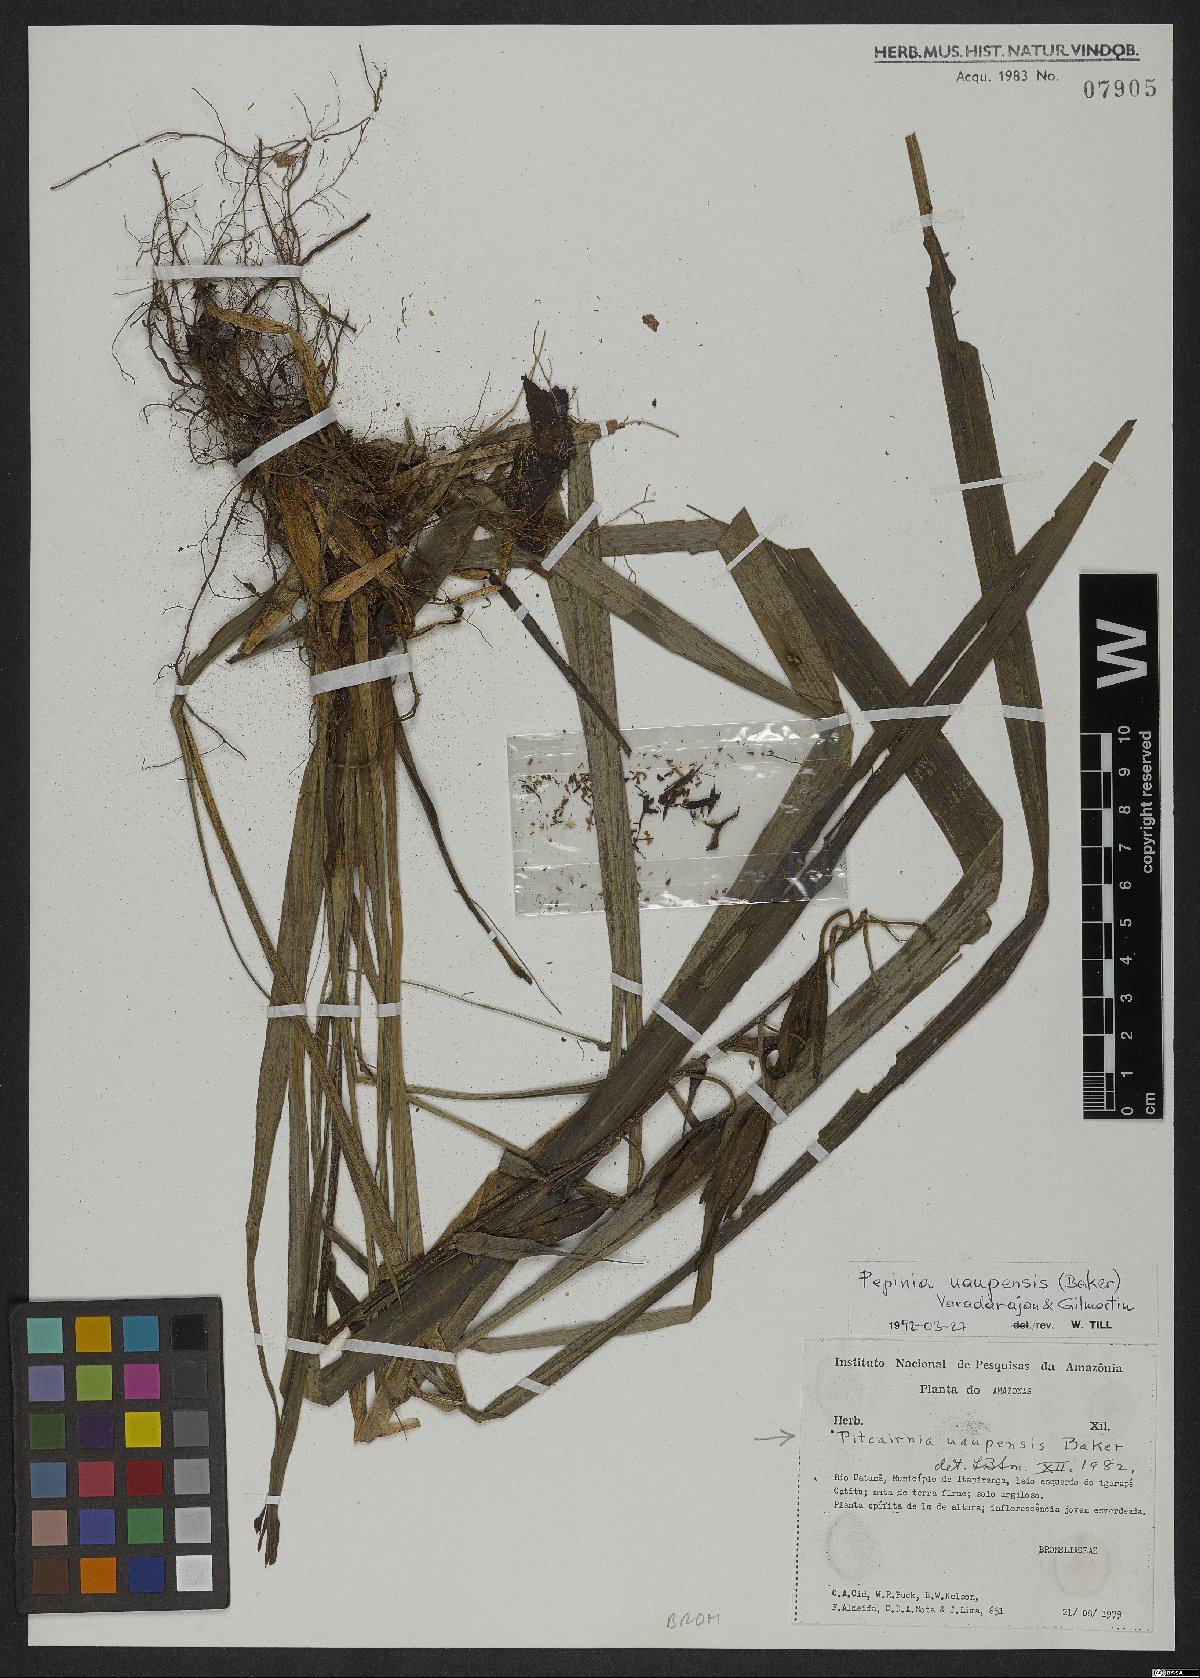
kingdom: Plantae
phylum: Tracheophyta
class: Liliopsida
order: Poales
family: Bromeliaceae
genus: Pitcairnia
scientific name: Pitcairnia uaupensis
